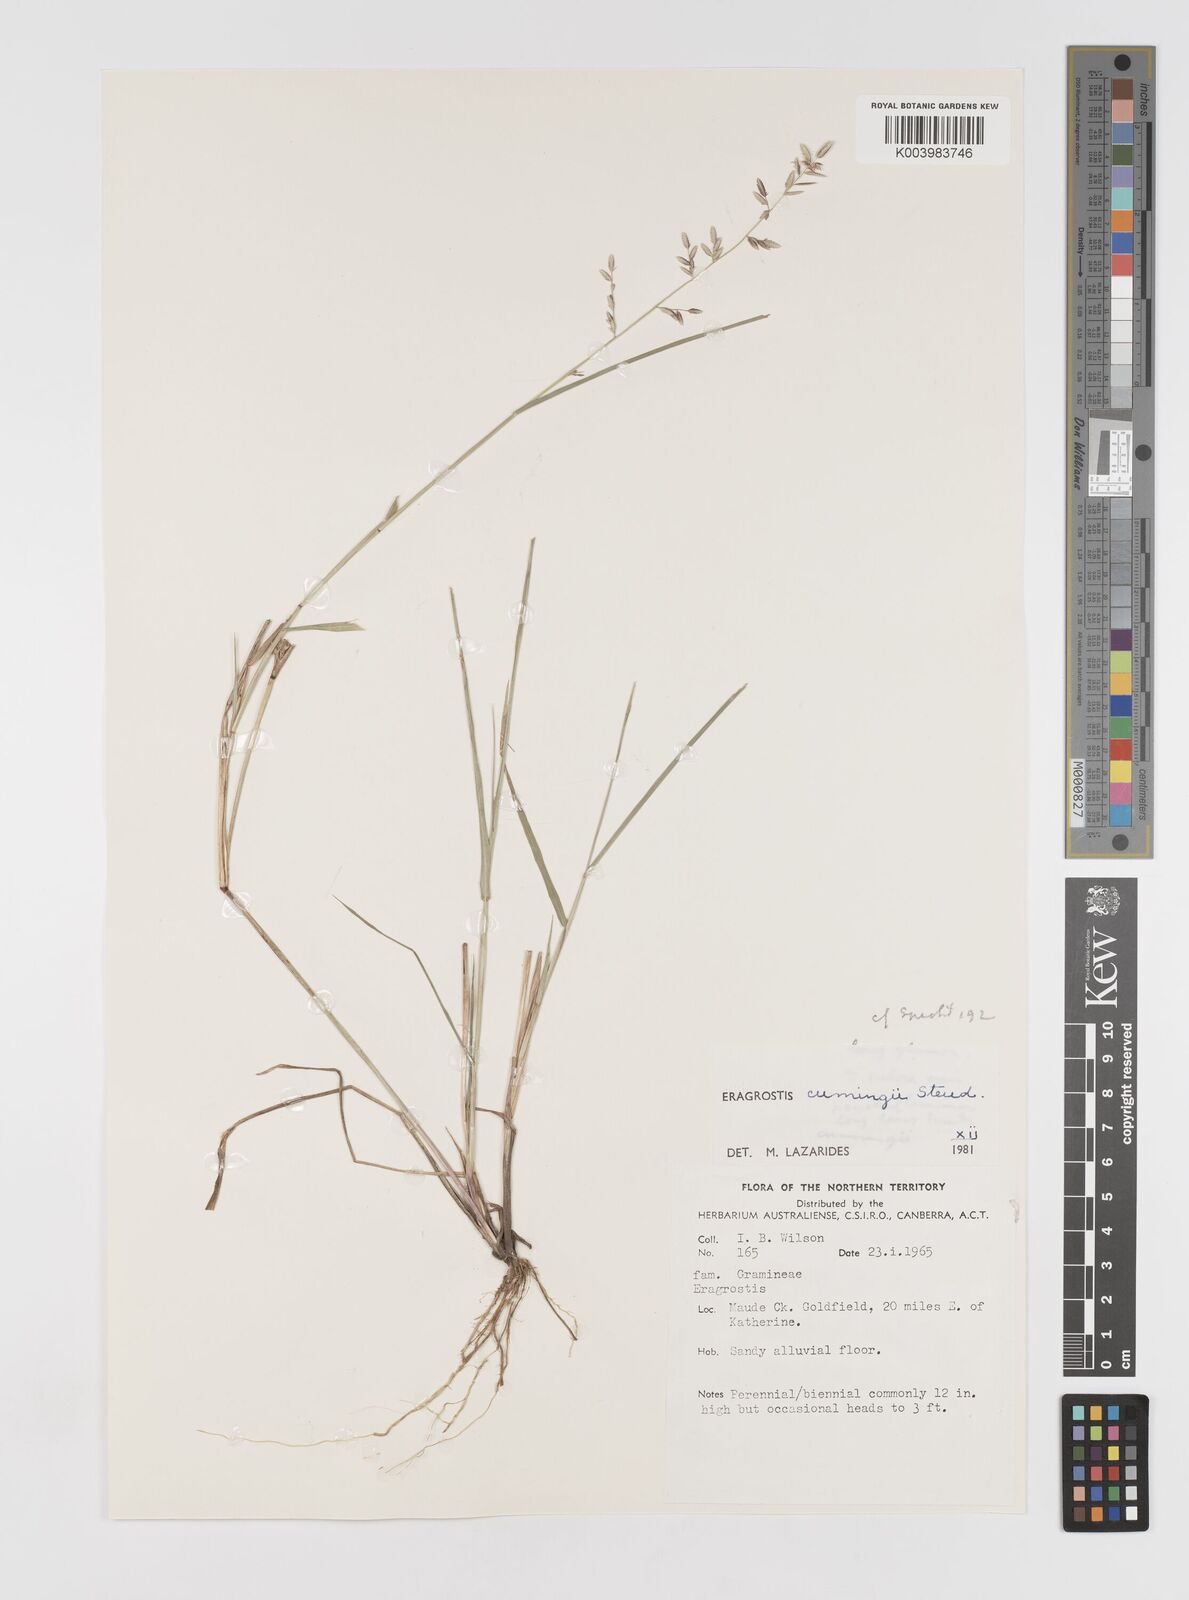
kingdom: Plantae
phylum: Tracheophyta
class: Liliopsida
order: Poales
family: Poaceae
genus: Eragrostis
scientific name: Eragrostis cumingii
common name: Cuming's lovegrass
